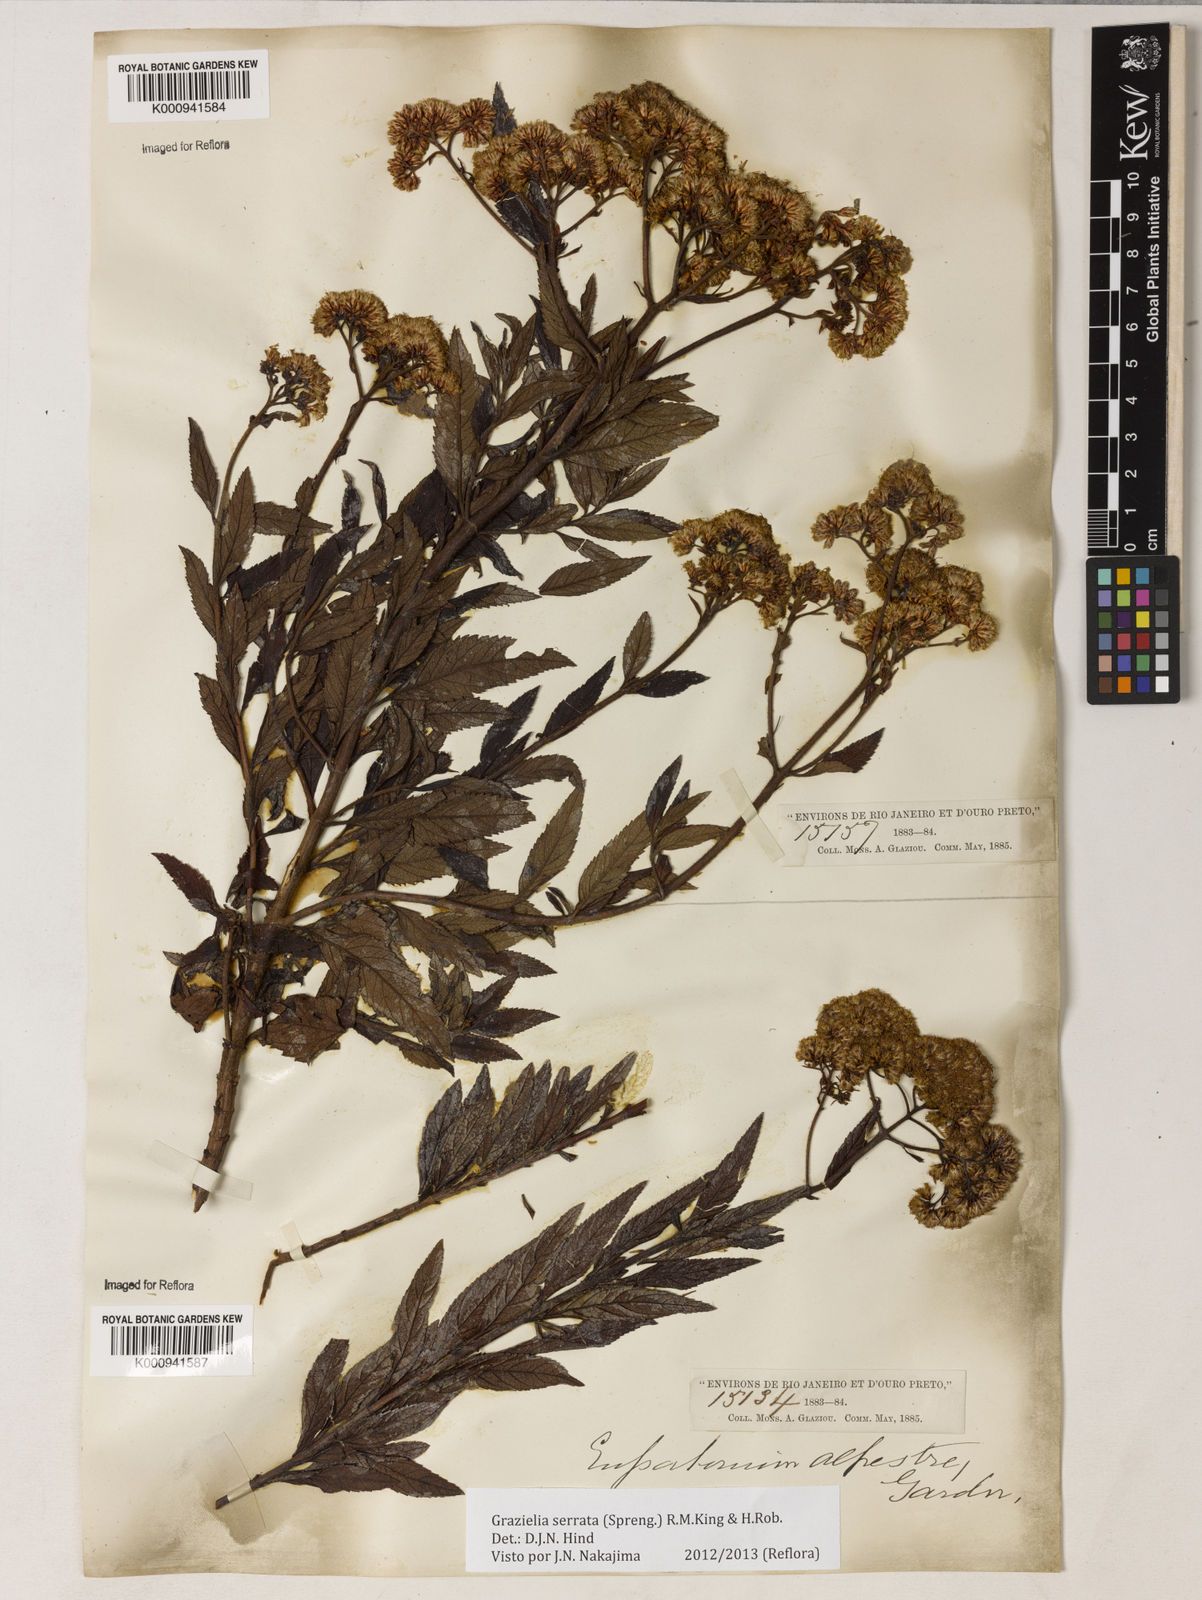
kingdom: Plantae
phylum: Tracheophyta
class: Magnoliopsida
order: Asterales
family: Asteraceae
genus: Grazielia
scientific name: Grazielia serrata
